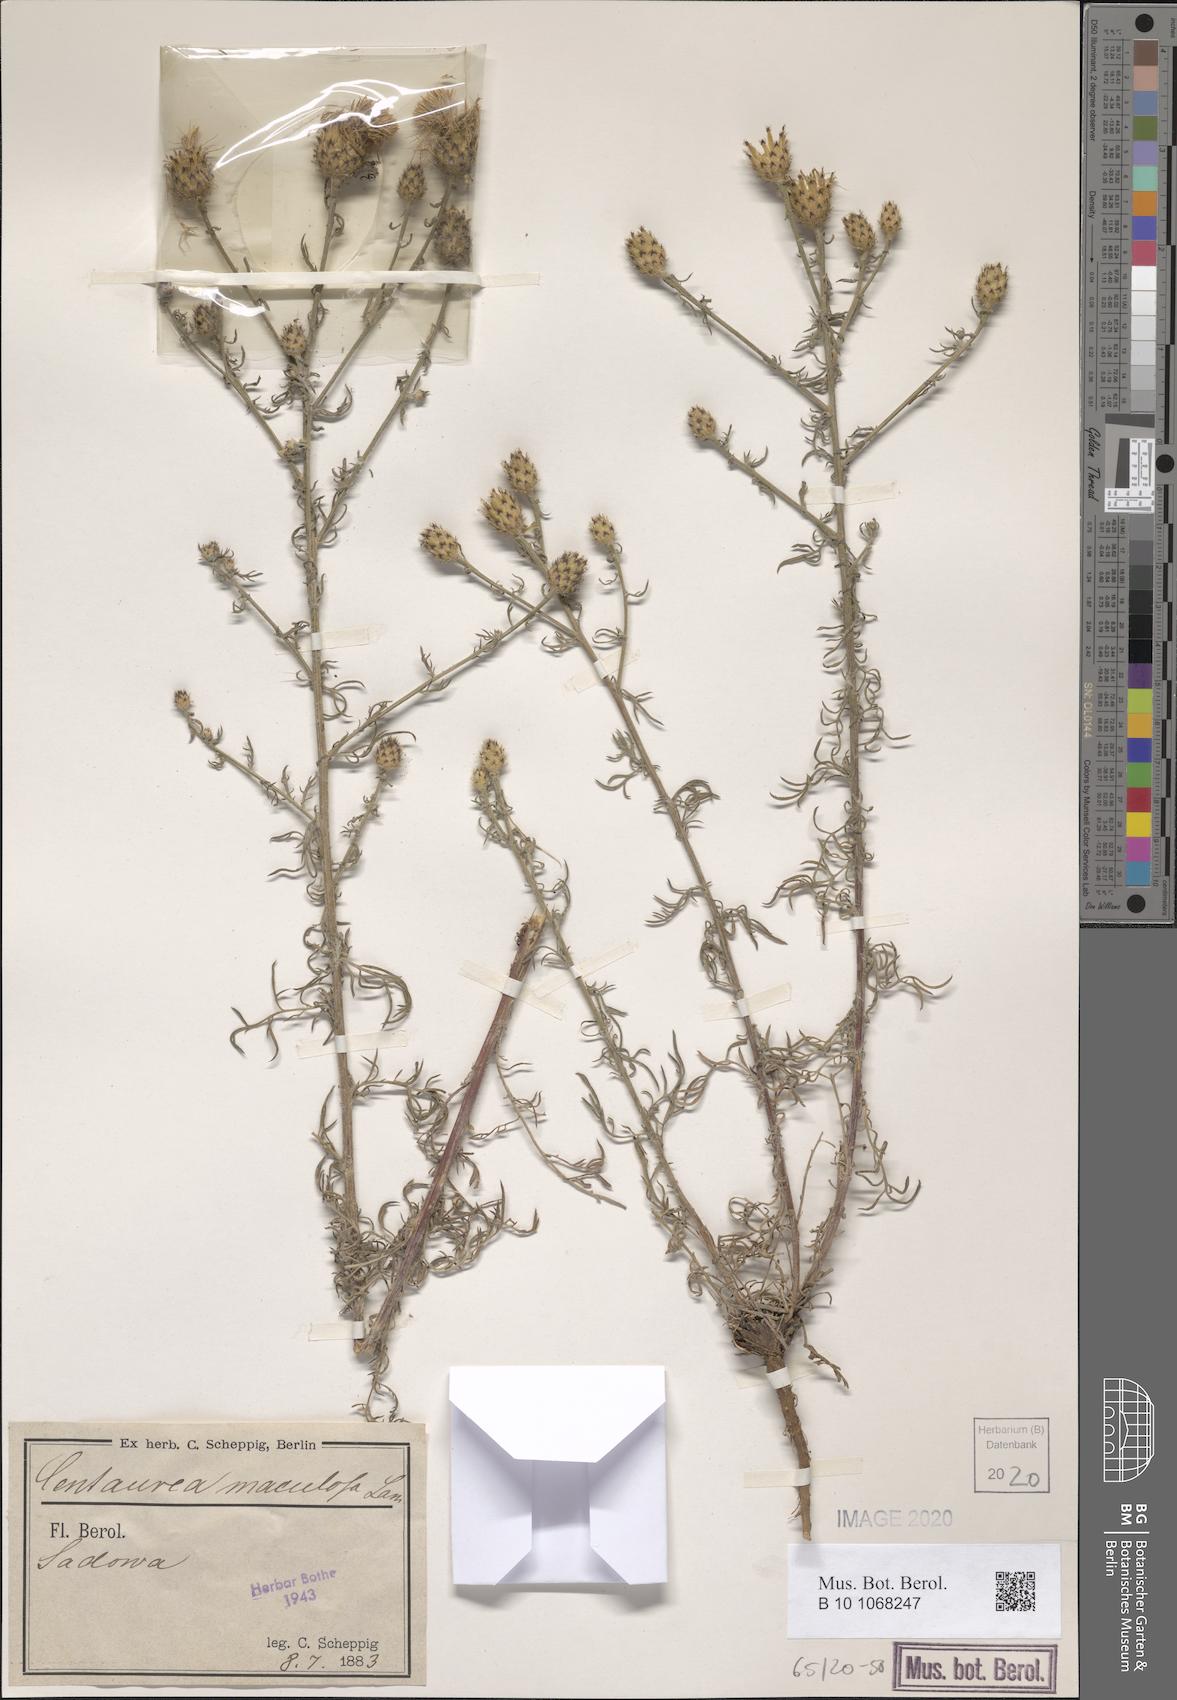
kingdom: Plantae
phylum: Tracheophyta
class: Magnoliopsida
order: Asterales
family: Asteraceae
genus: Centaurea
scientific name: Centaurea stoebe
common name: Spotted knapweed
